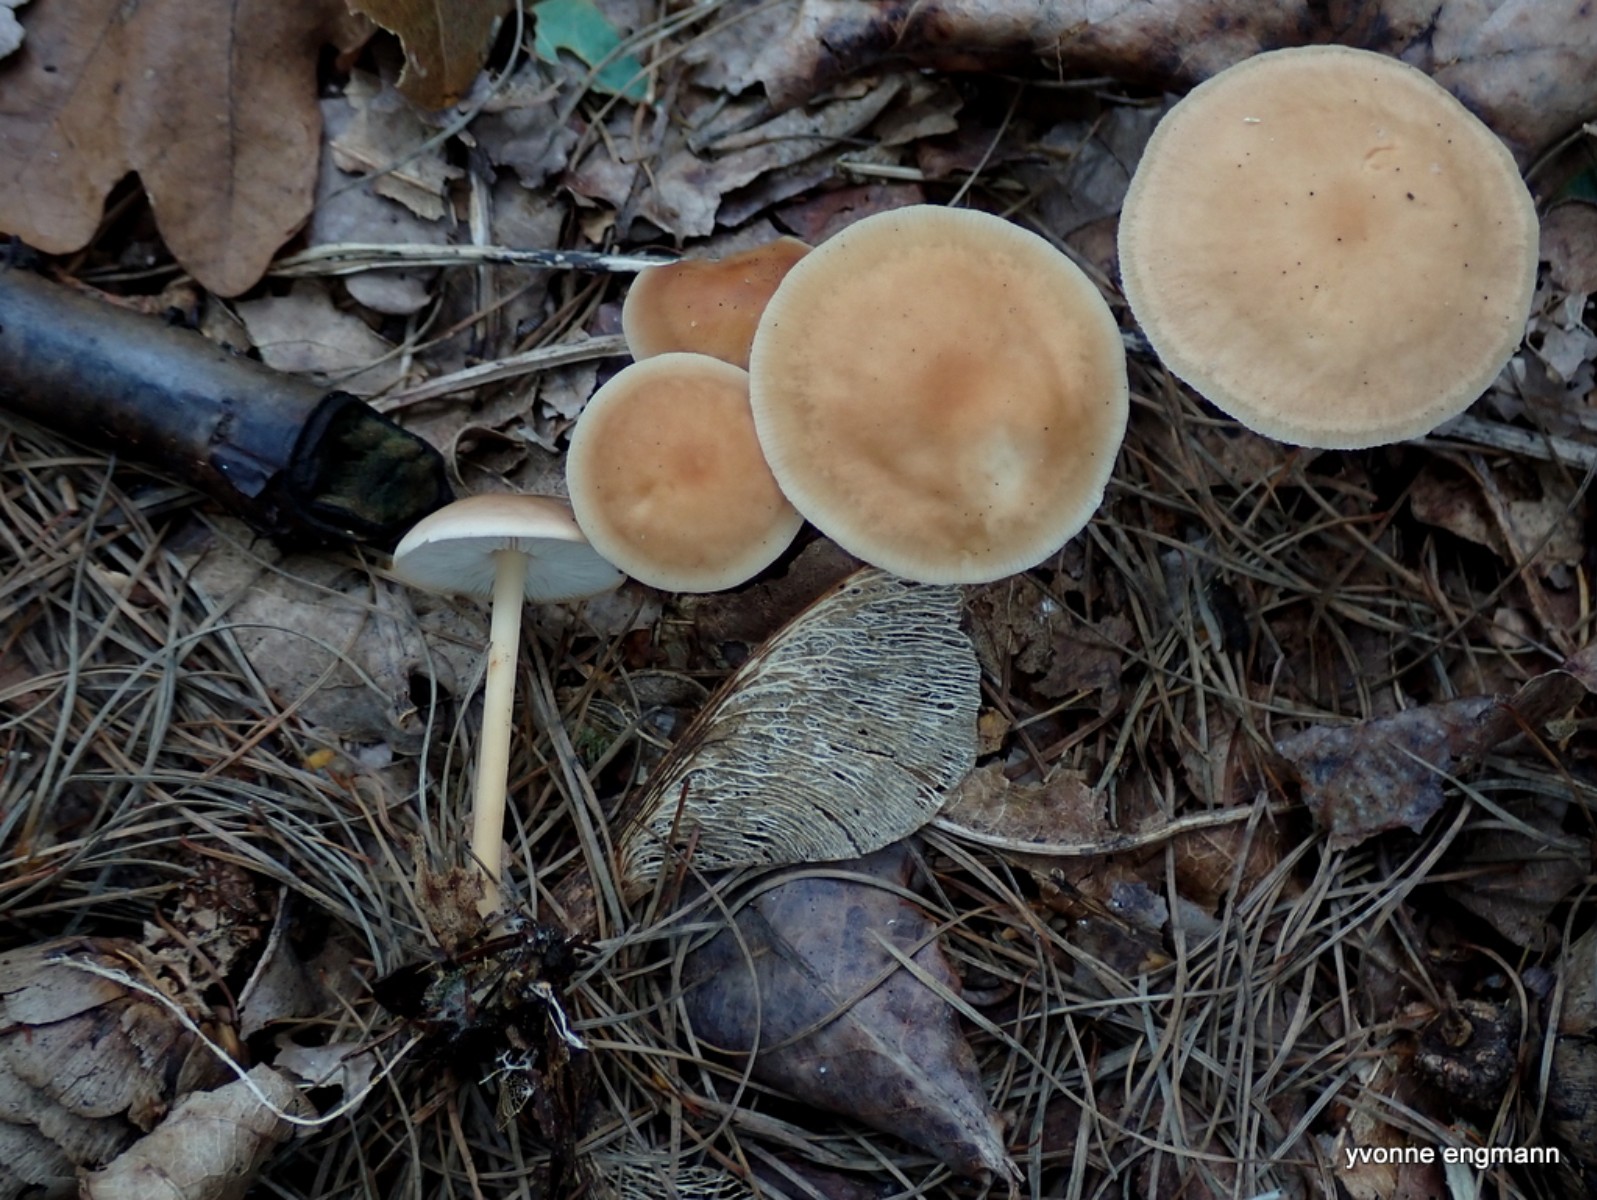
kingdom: Fungi
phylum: Basidiomycota
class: Agaricomycetes
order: Agaricales
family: Omphalotaceae
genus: Gymnopus
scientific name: Gymnopus dryophilus
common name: løv-fladhat
